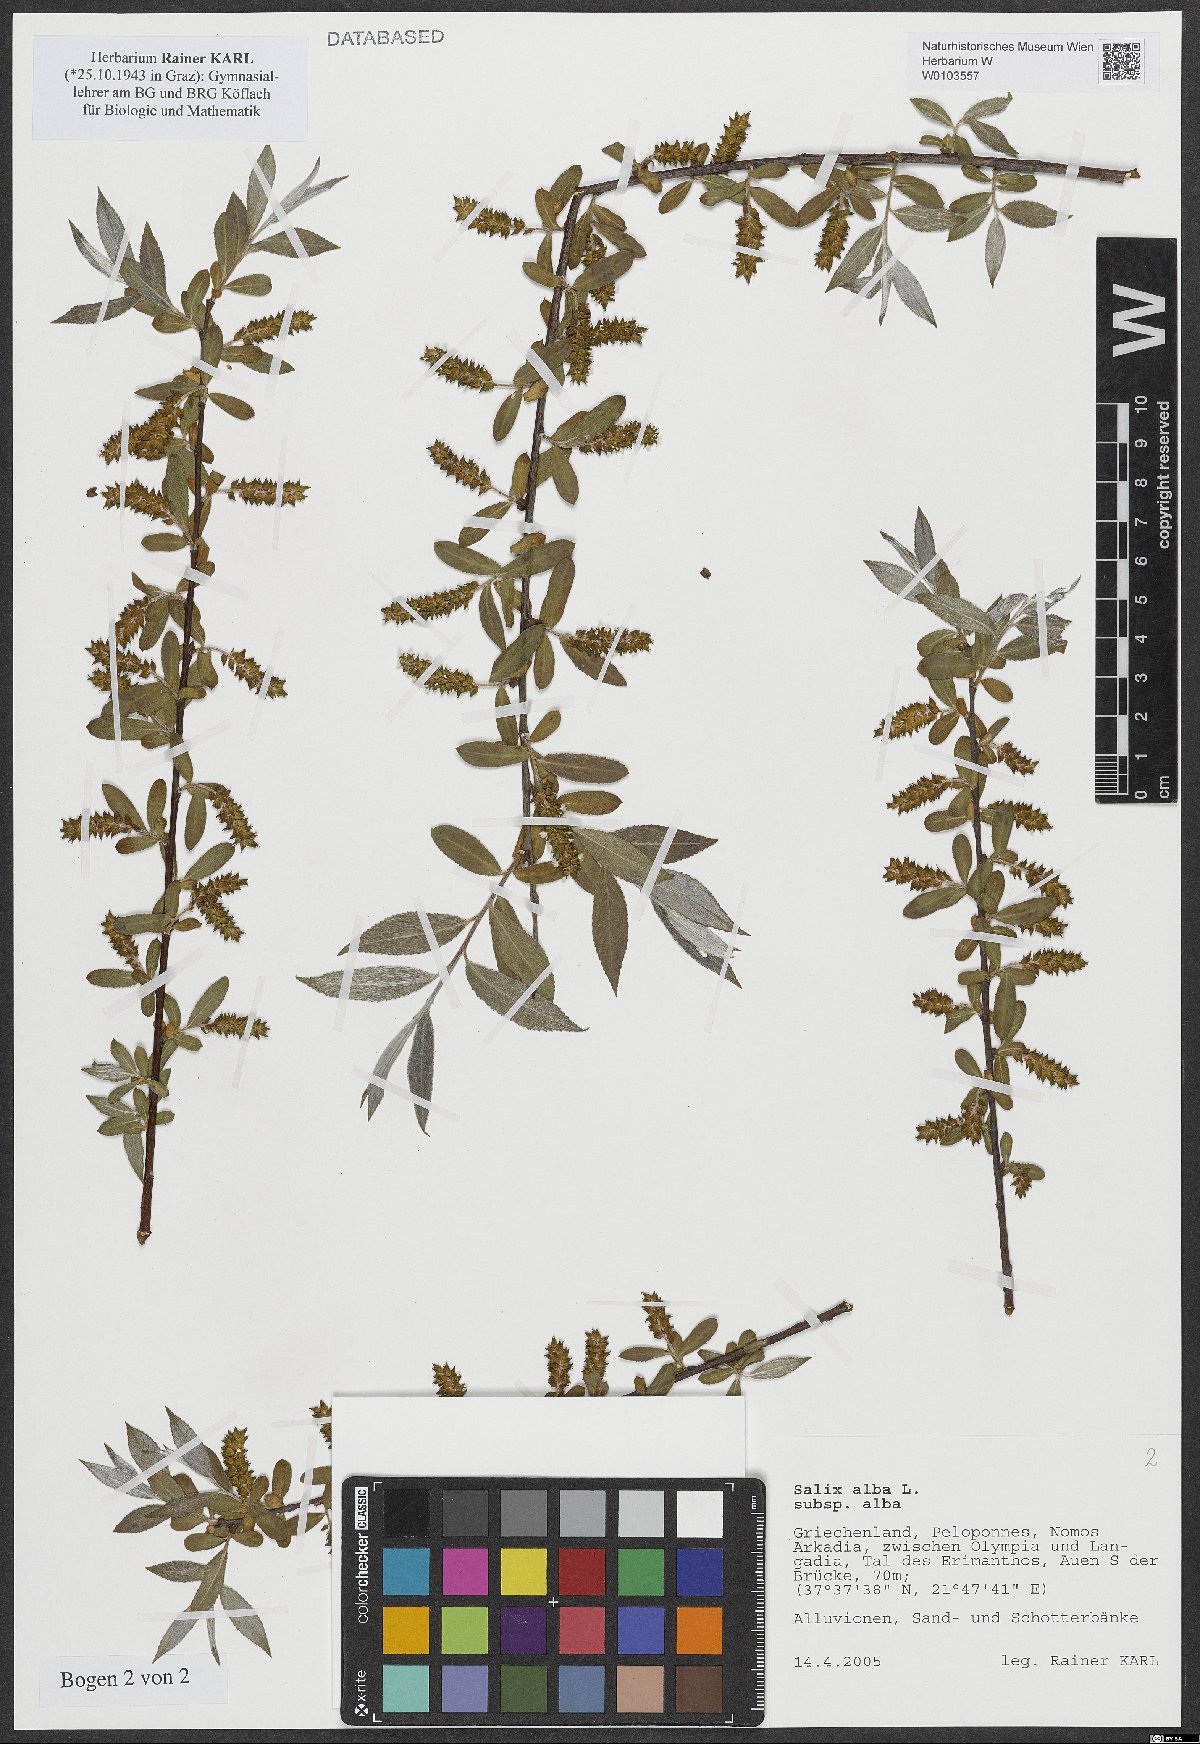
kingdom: Plantae
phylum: Tracheophyta
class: Magnoliopsida
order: Malpighiales
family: Salicaceae
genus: Salix
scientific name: Salix alba
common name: White willow
